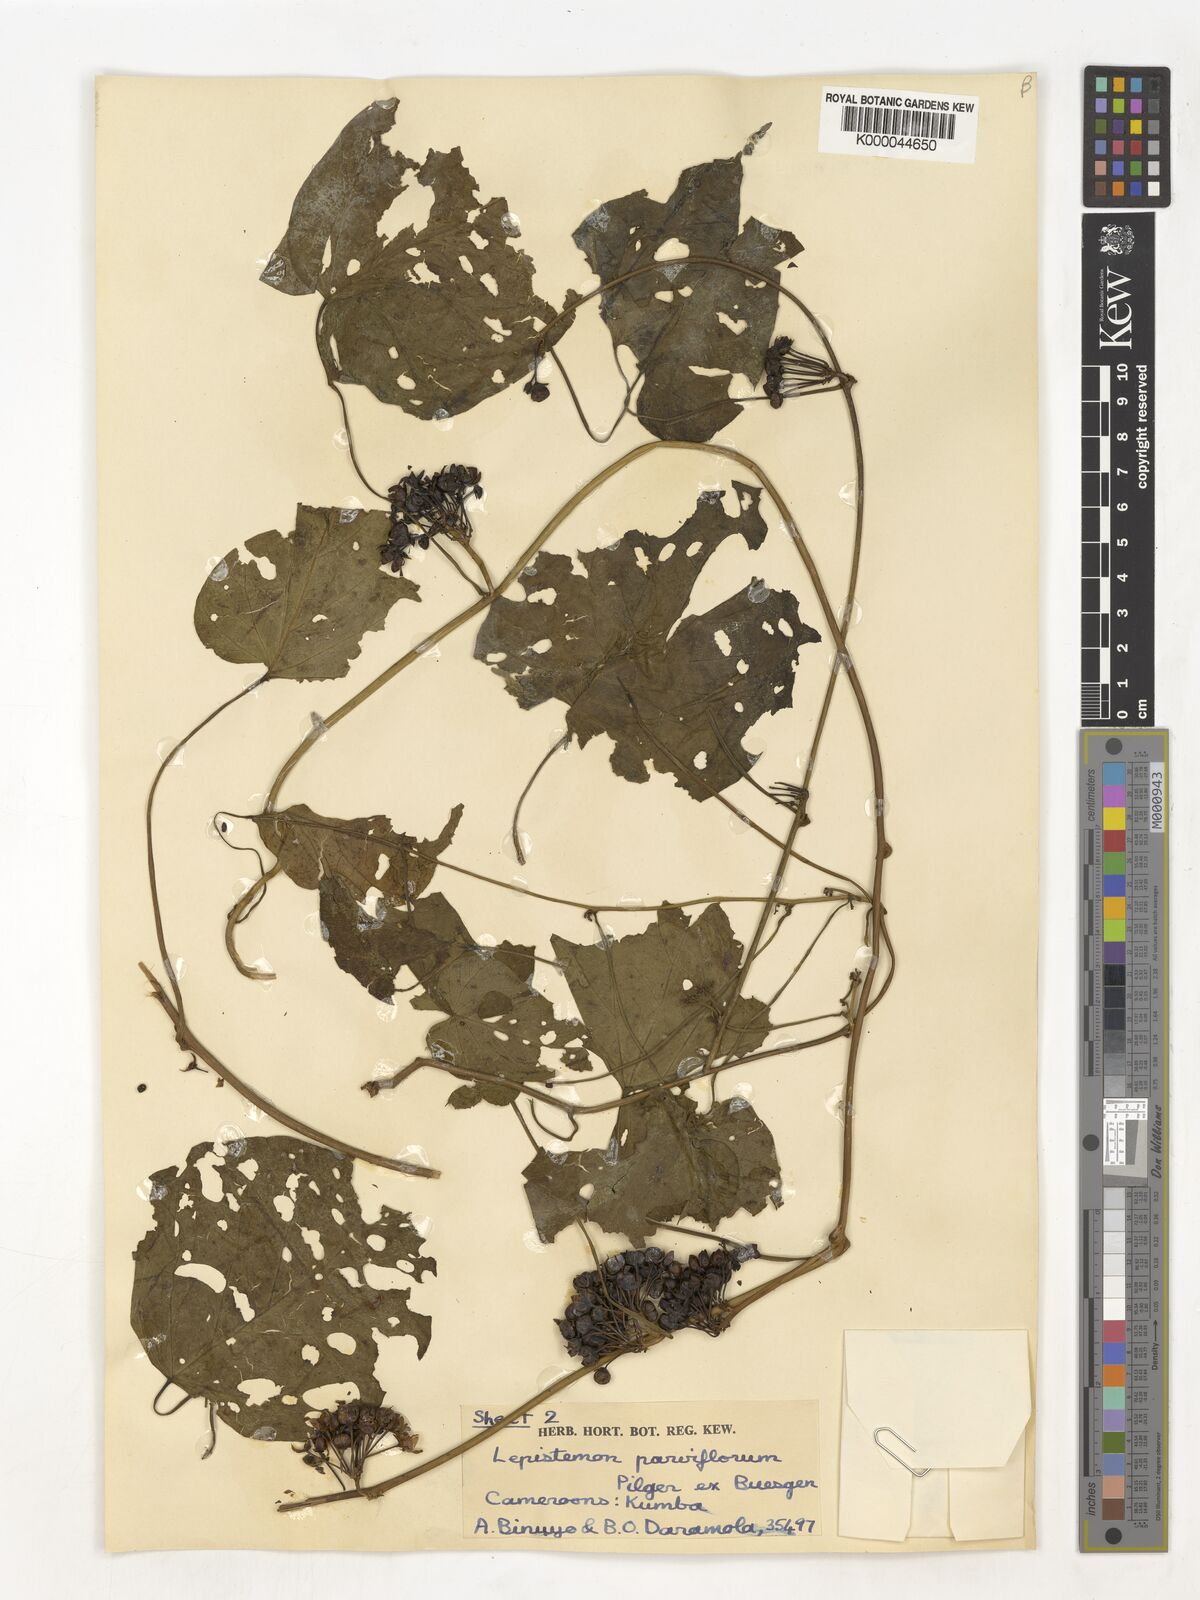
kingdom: Plantae
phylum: Tracheophyta
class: Magnoliopsida
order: Solanales
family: Convolvulaceae
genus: Lepistemon
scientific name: Lepistemon
